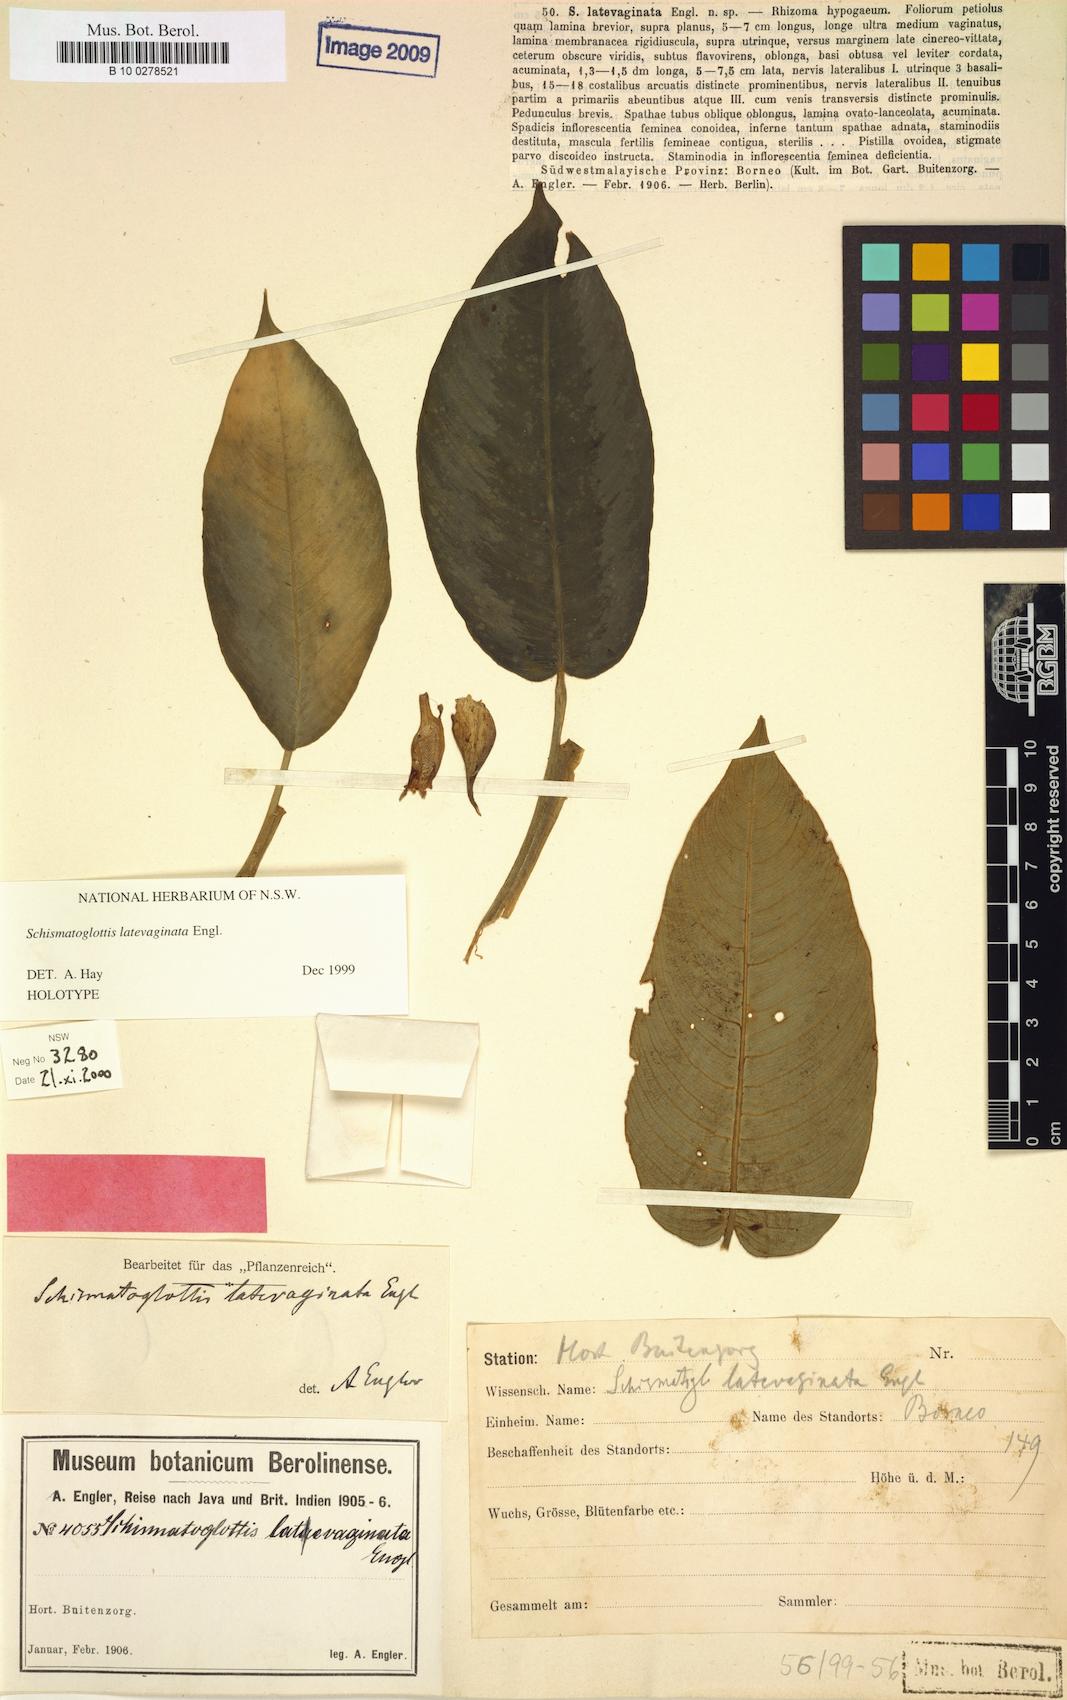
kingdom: Plantae
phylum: Tracheophyta
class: Liliopsida
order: Alismatales
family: Araceae
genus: Schismatoglottis
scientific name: Schismatoglottis latevaginata
